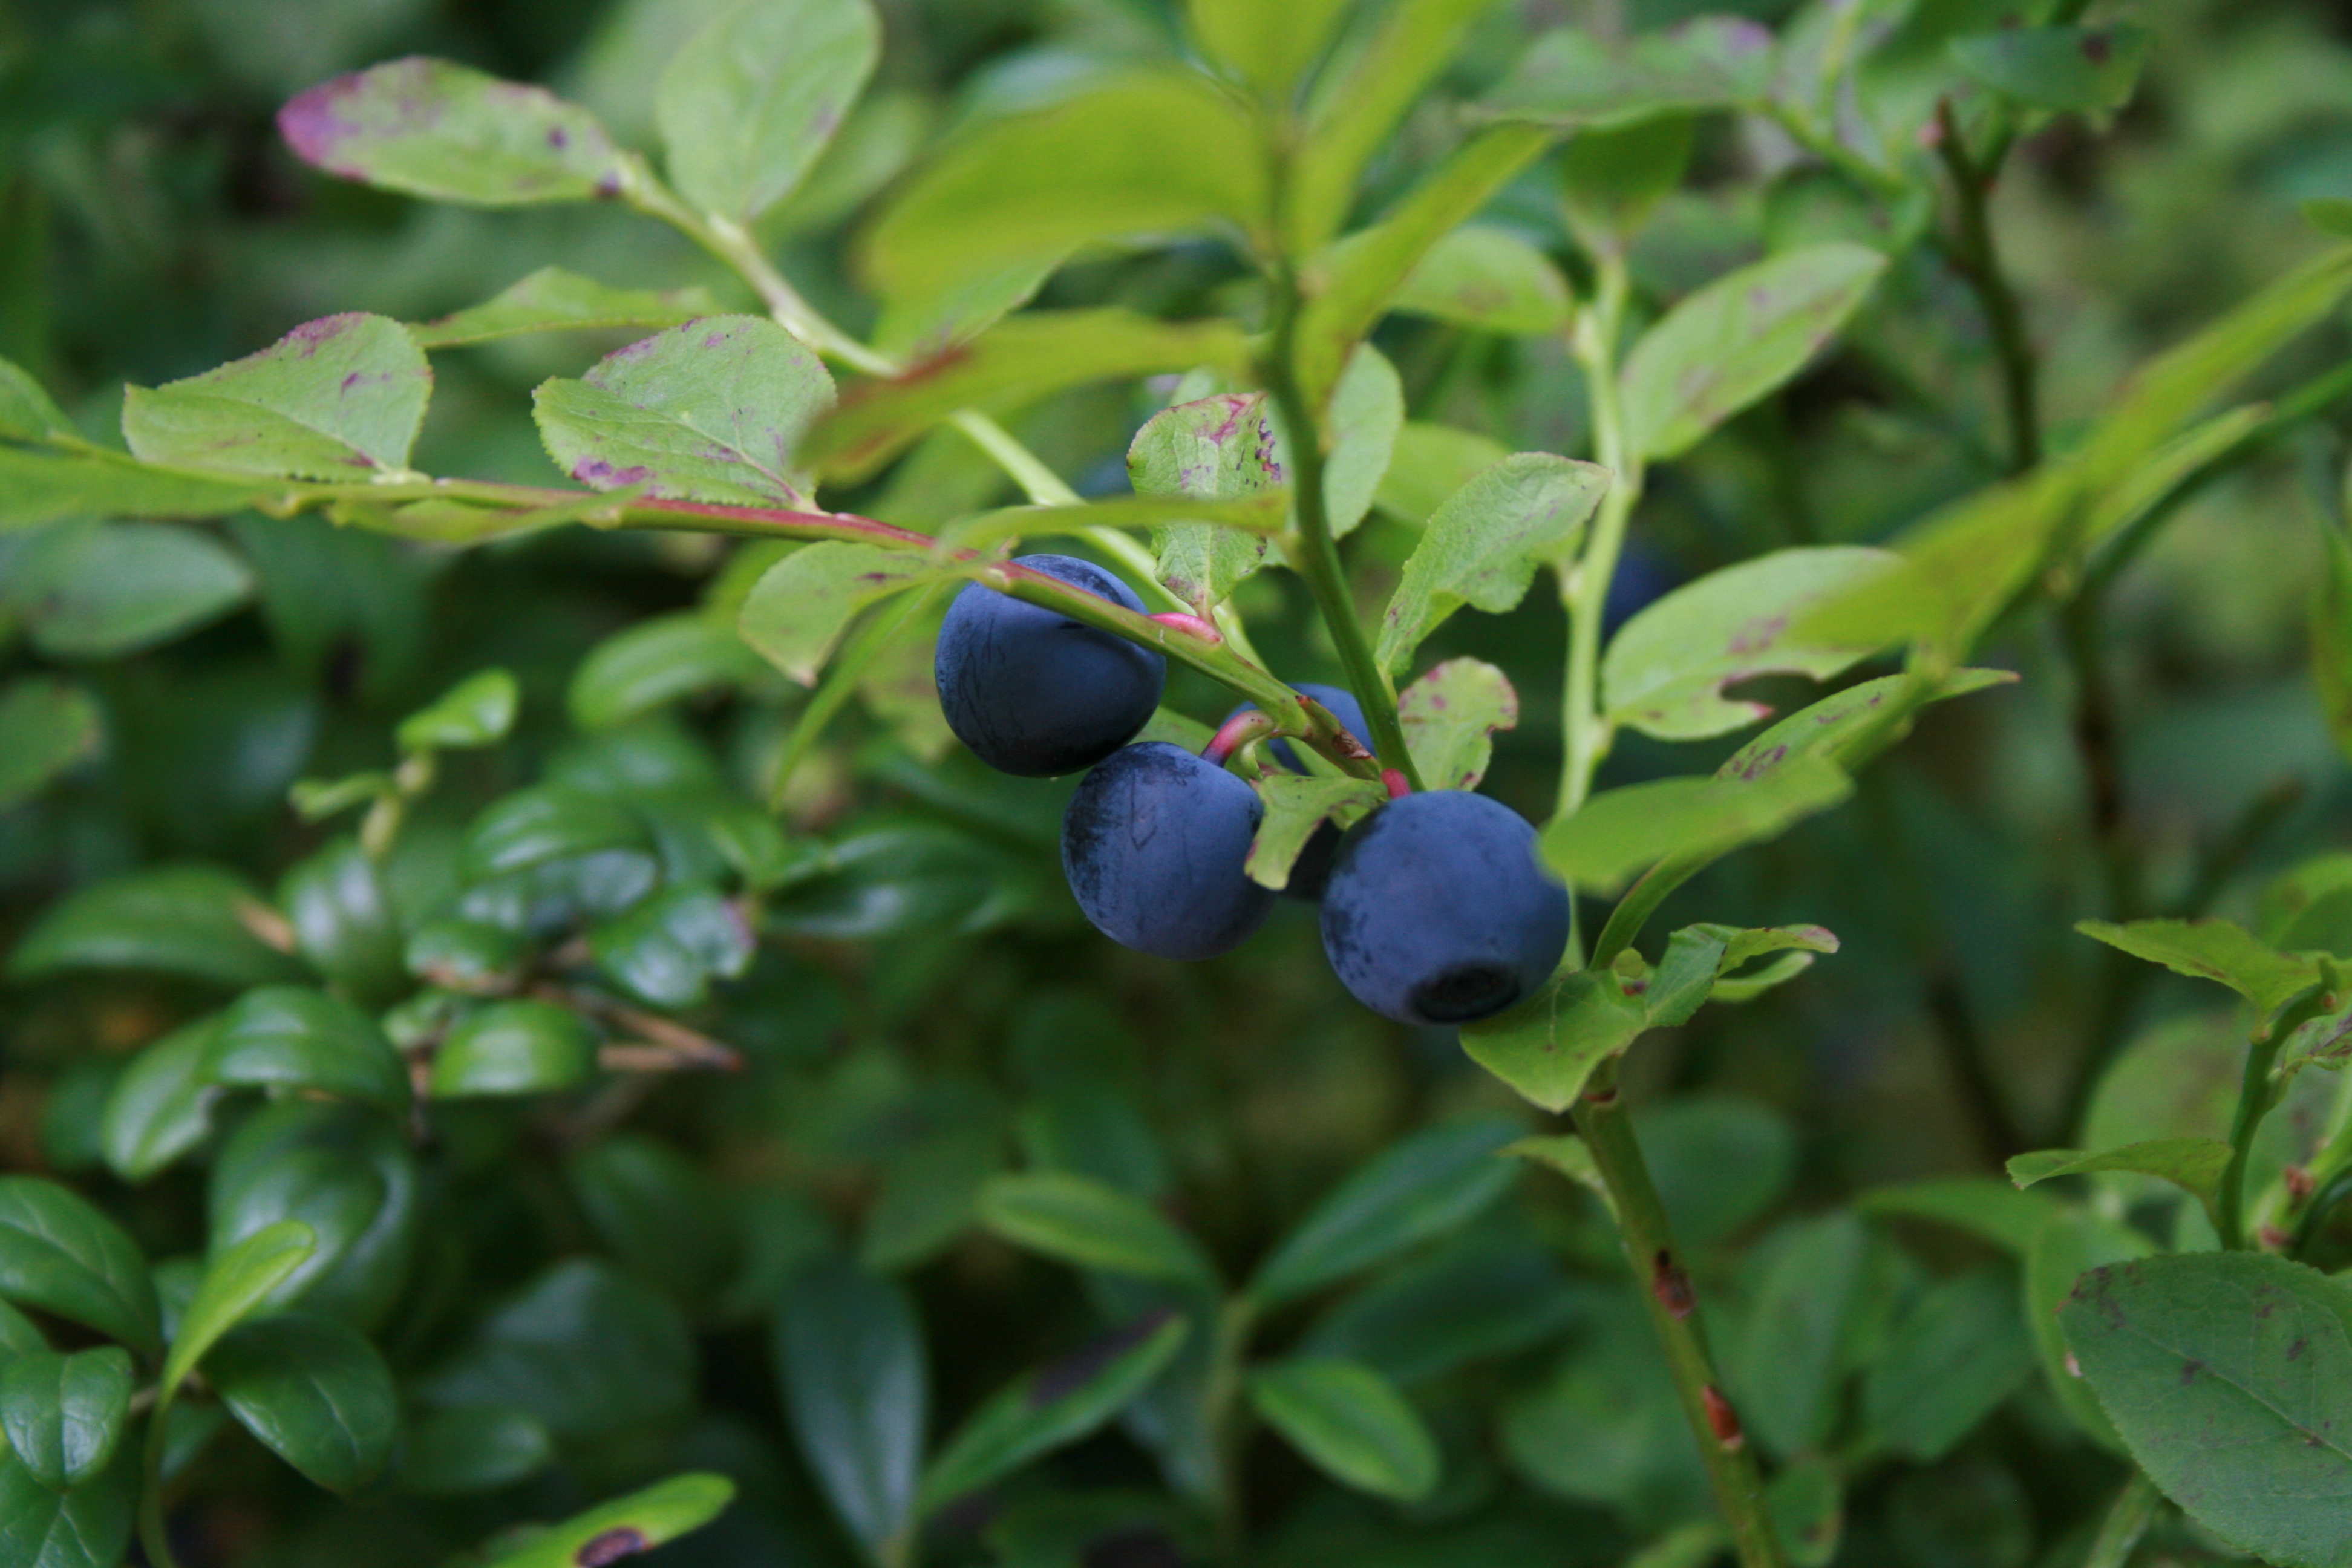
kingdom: Plantae
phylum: Tracheophyta
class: Magnoliopsida
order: Ericales
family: Ericaceae
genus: Vaccinium
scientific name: Vaccinium myrtillus
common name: Bilberry
